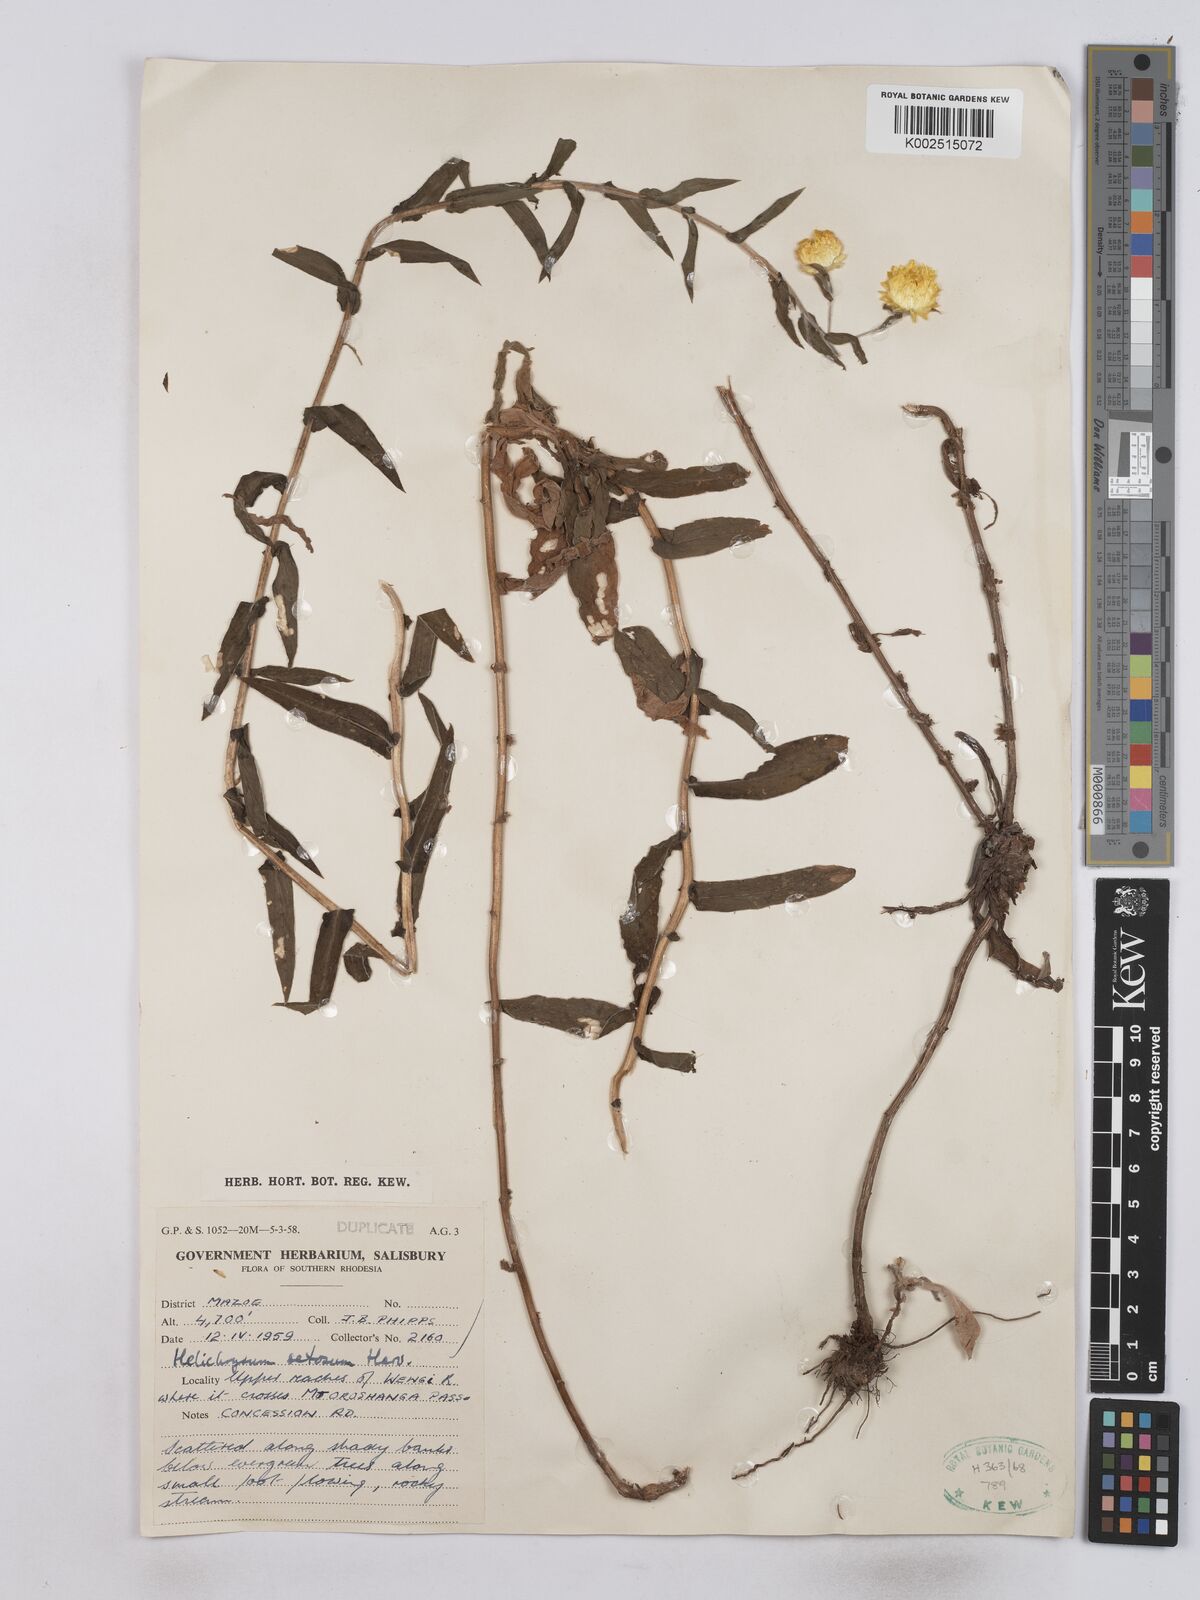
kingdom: Plantae
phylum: Tracheophyta
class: Magnoliopsida
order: Asterales
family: Asteraceae
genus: Helichrysum
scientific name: Helichrysum setosum
